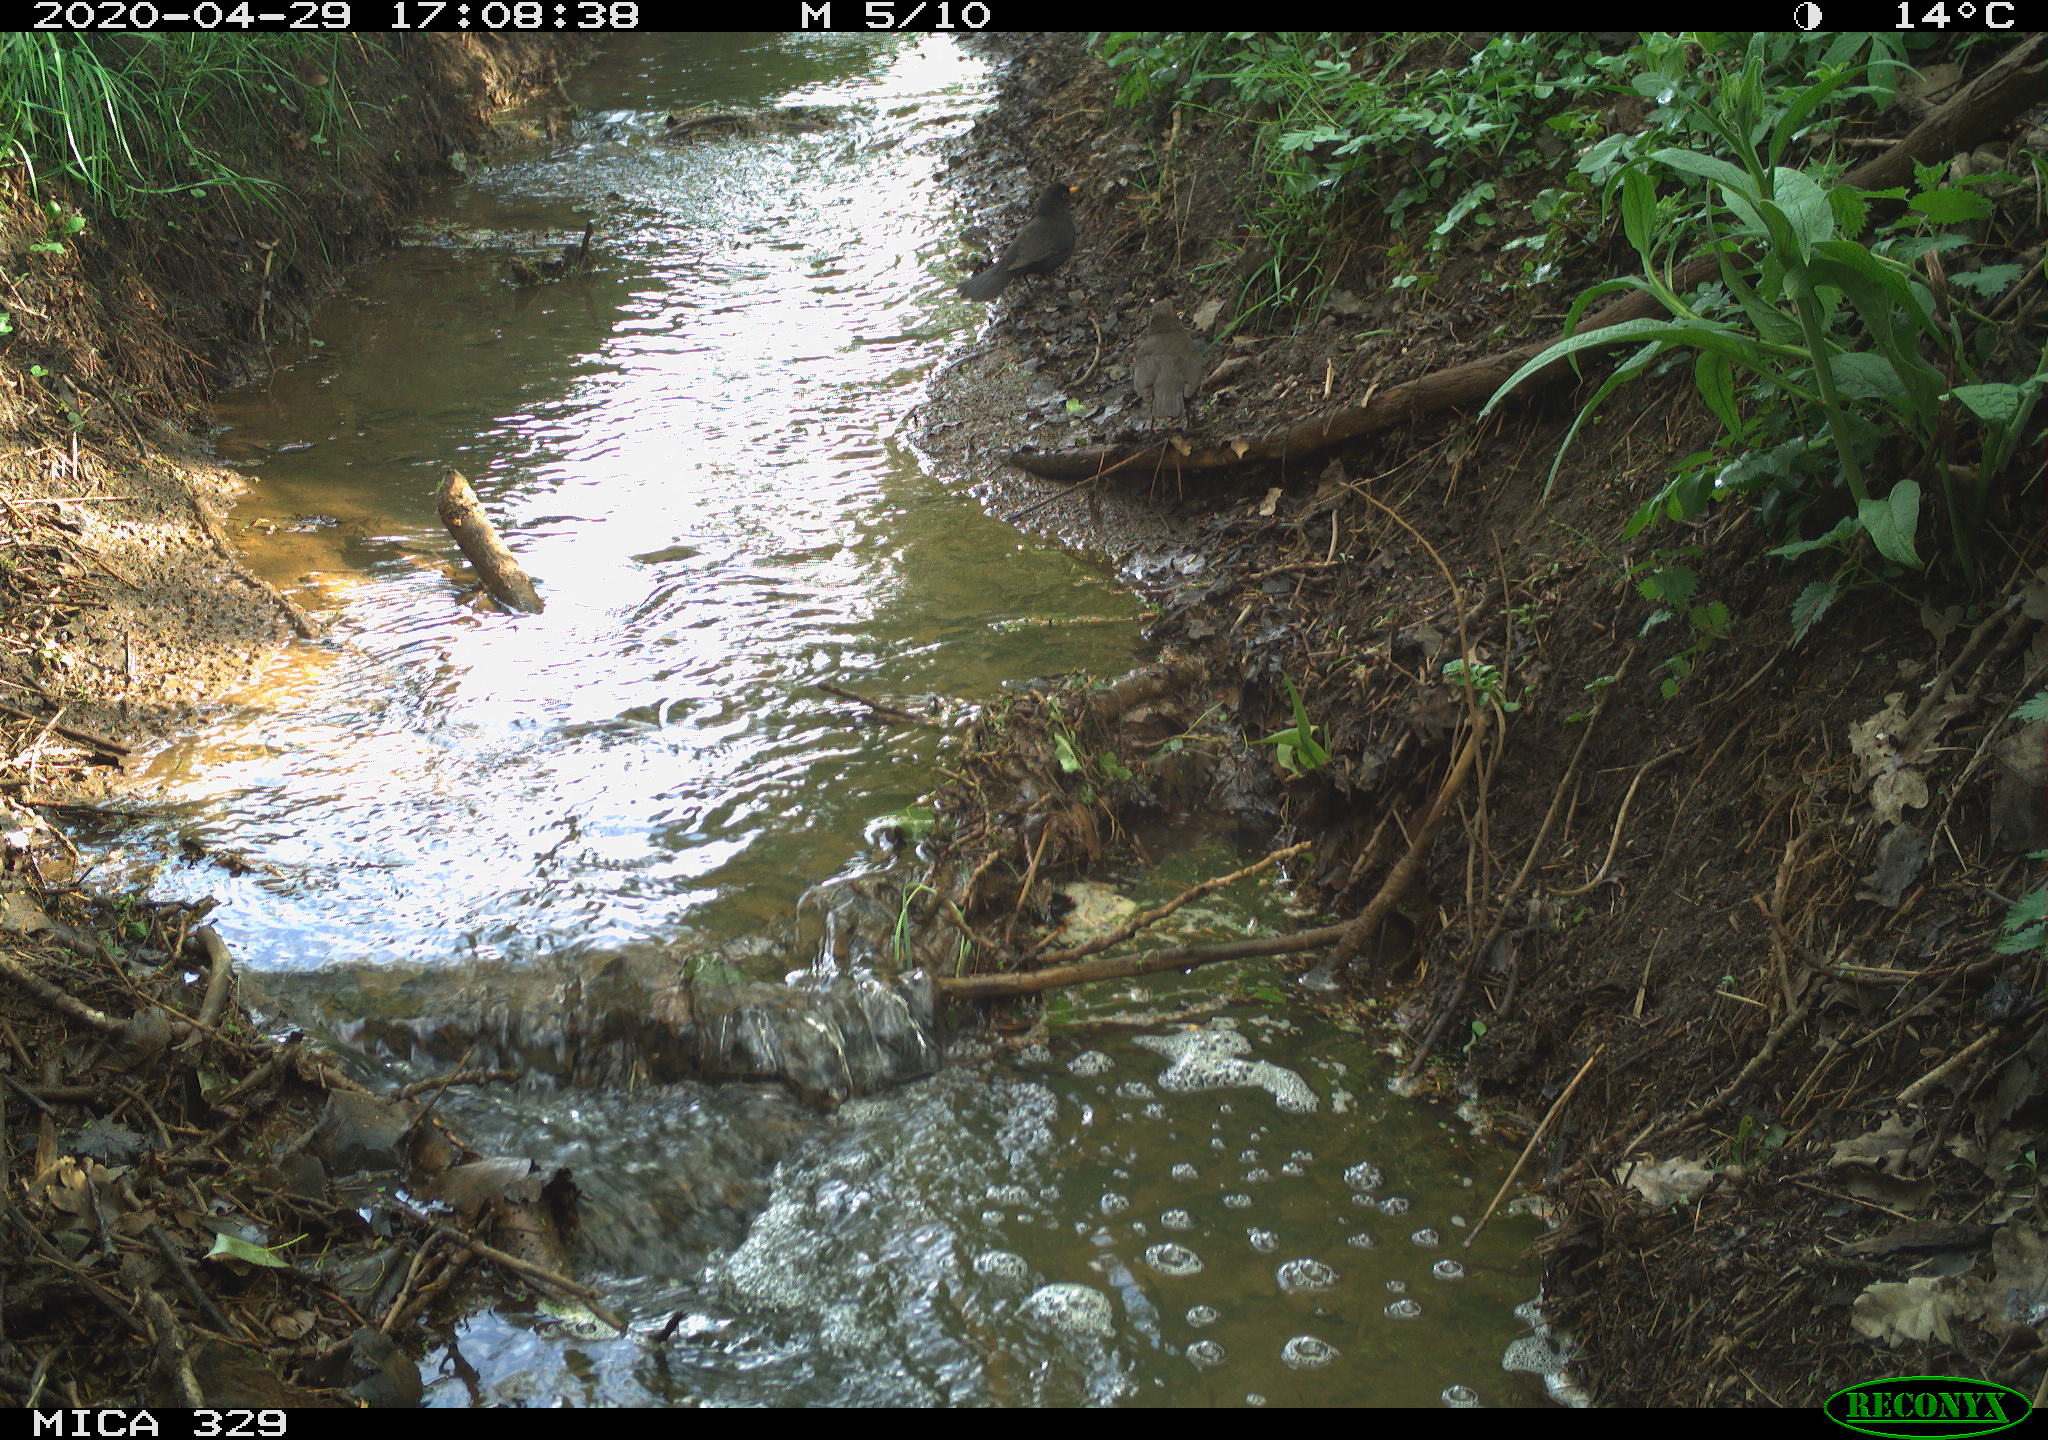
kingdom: Animalia
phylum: Chordata
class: Aves
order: Passeriformes
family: Turdidae
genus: Turdus
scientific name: Turdus merula
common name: Common blackbird
